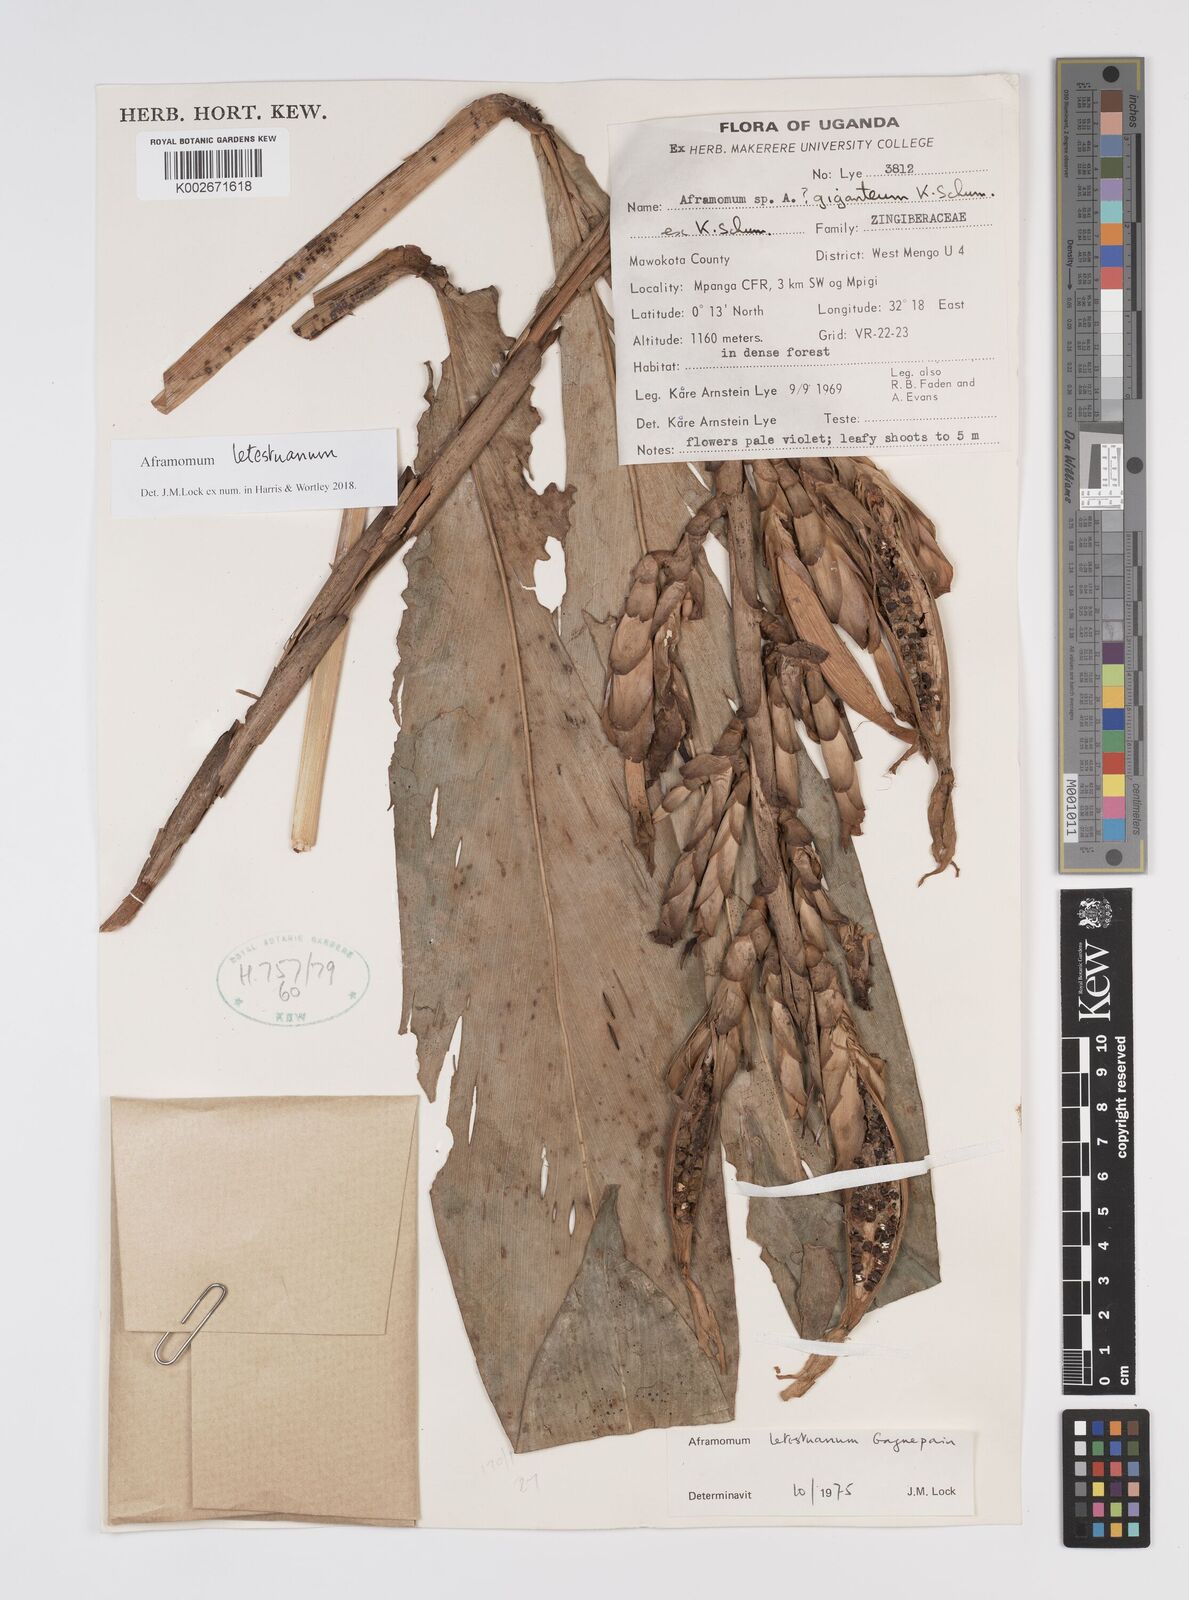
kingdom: Plantae
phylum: Tracheophyta
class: Liliopsida
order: Zingiberales
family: Zingiberaceae
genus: Aframomum
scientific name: Aframomum letestuanum
